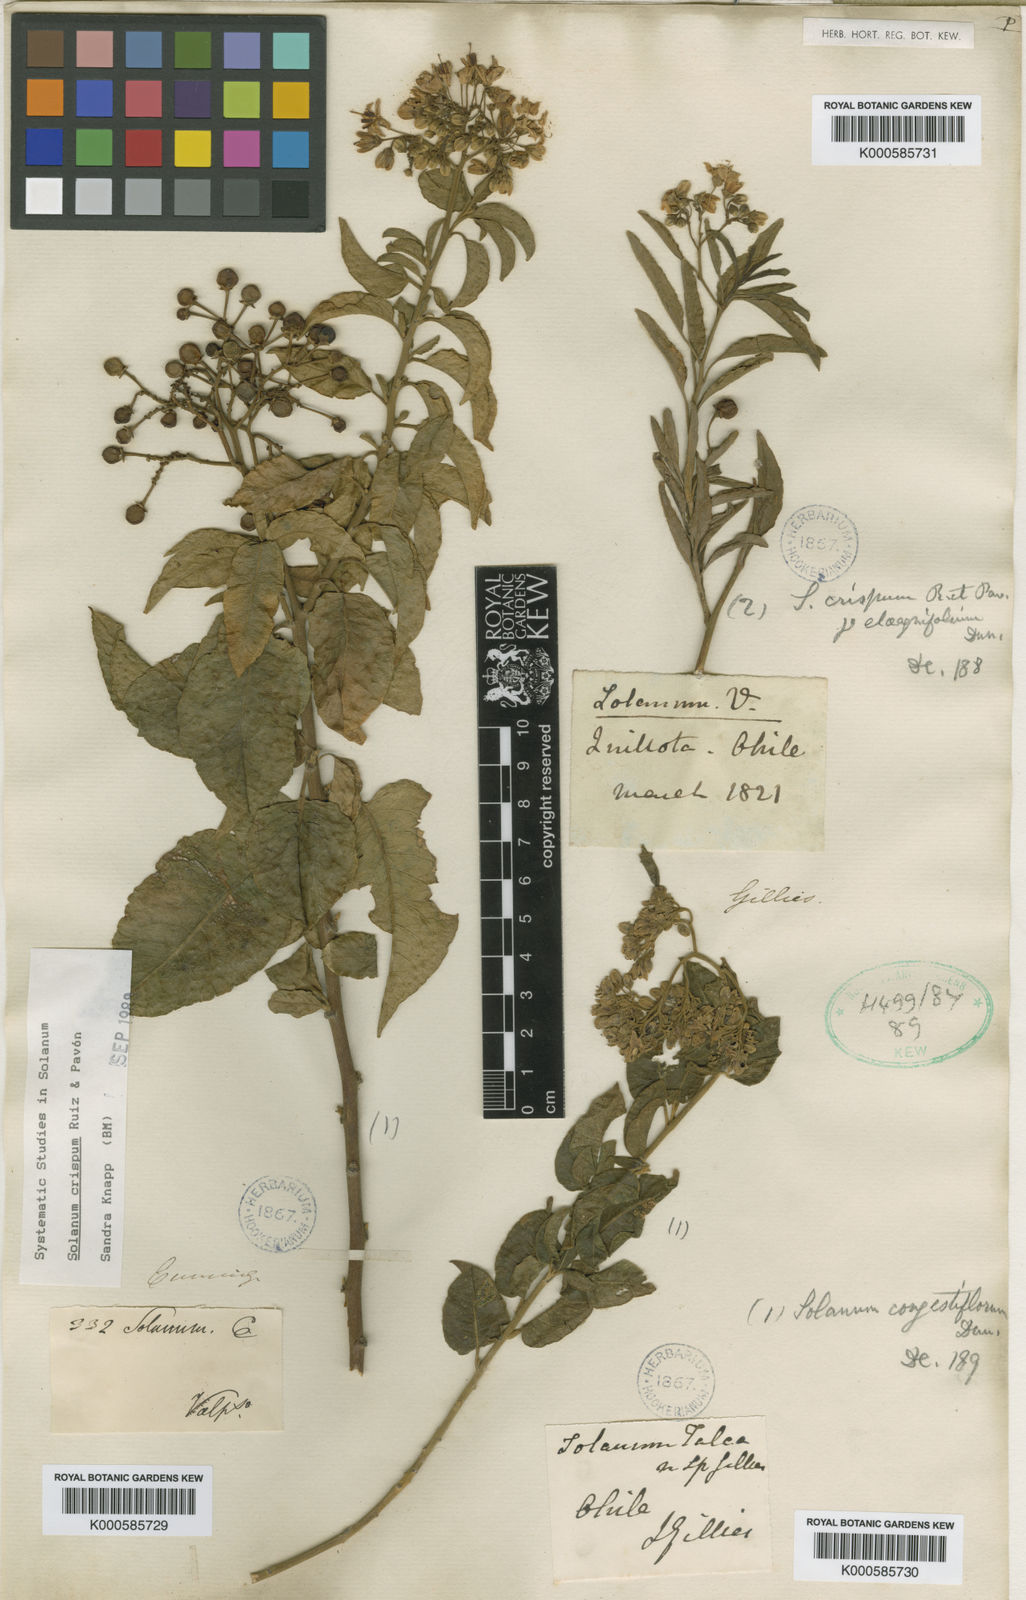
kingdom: Plantae
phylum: Tracheophyta
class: Magnoliopsida
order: Solanales
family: Solanaceae
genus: Solanum
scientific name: Solanum crispum
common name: Chilean nightshade
